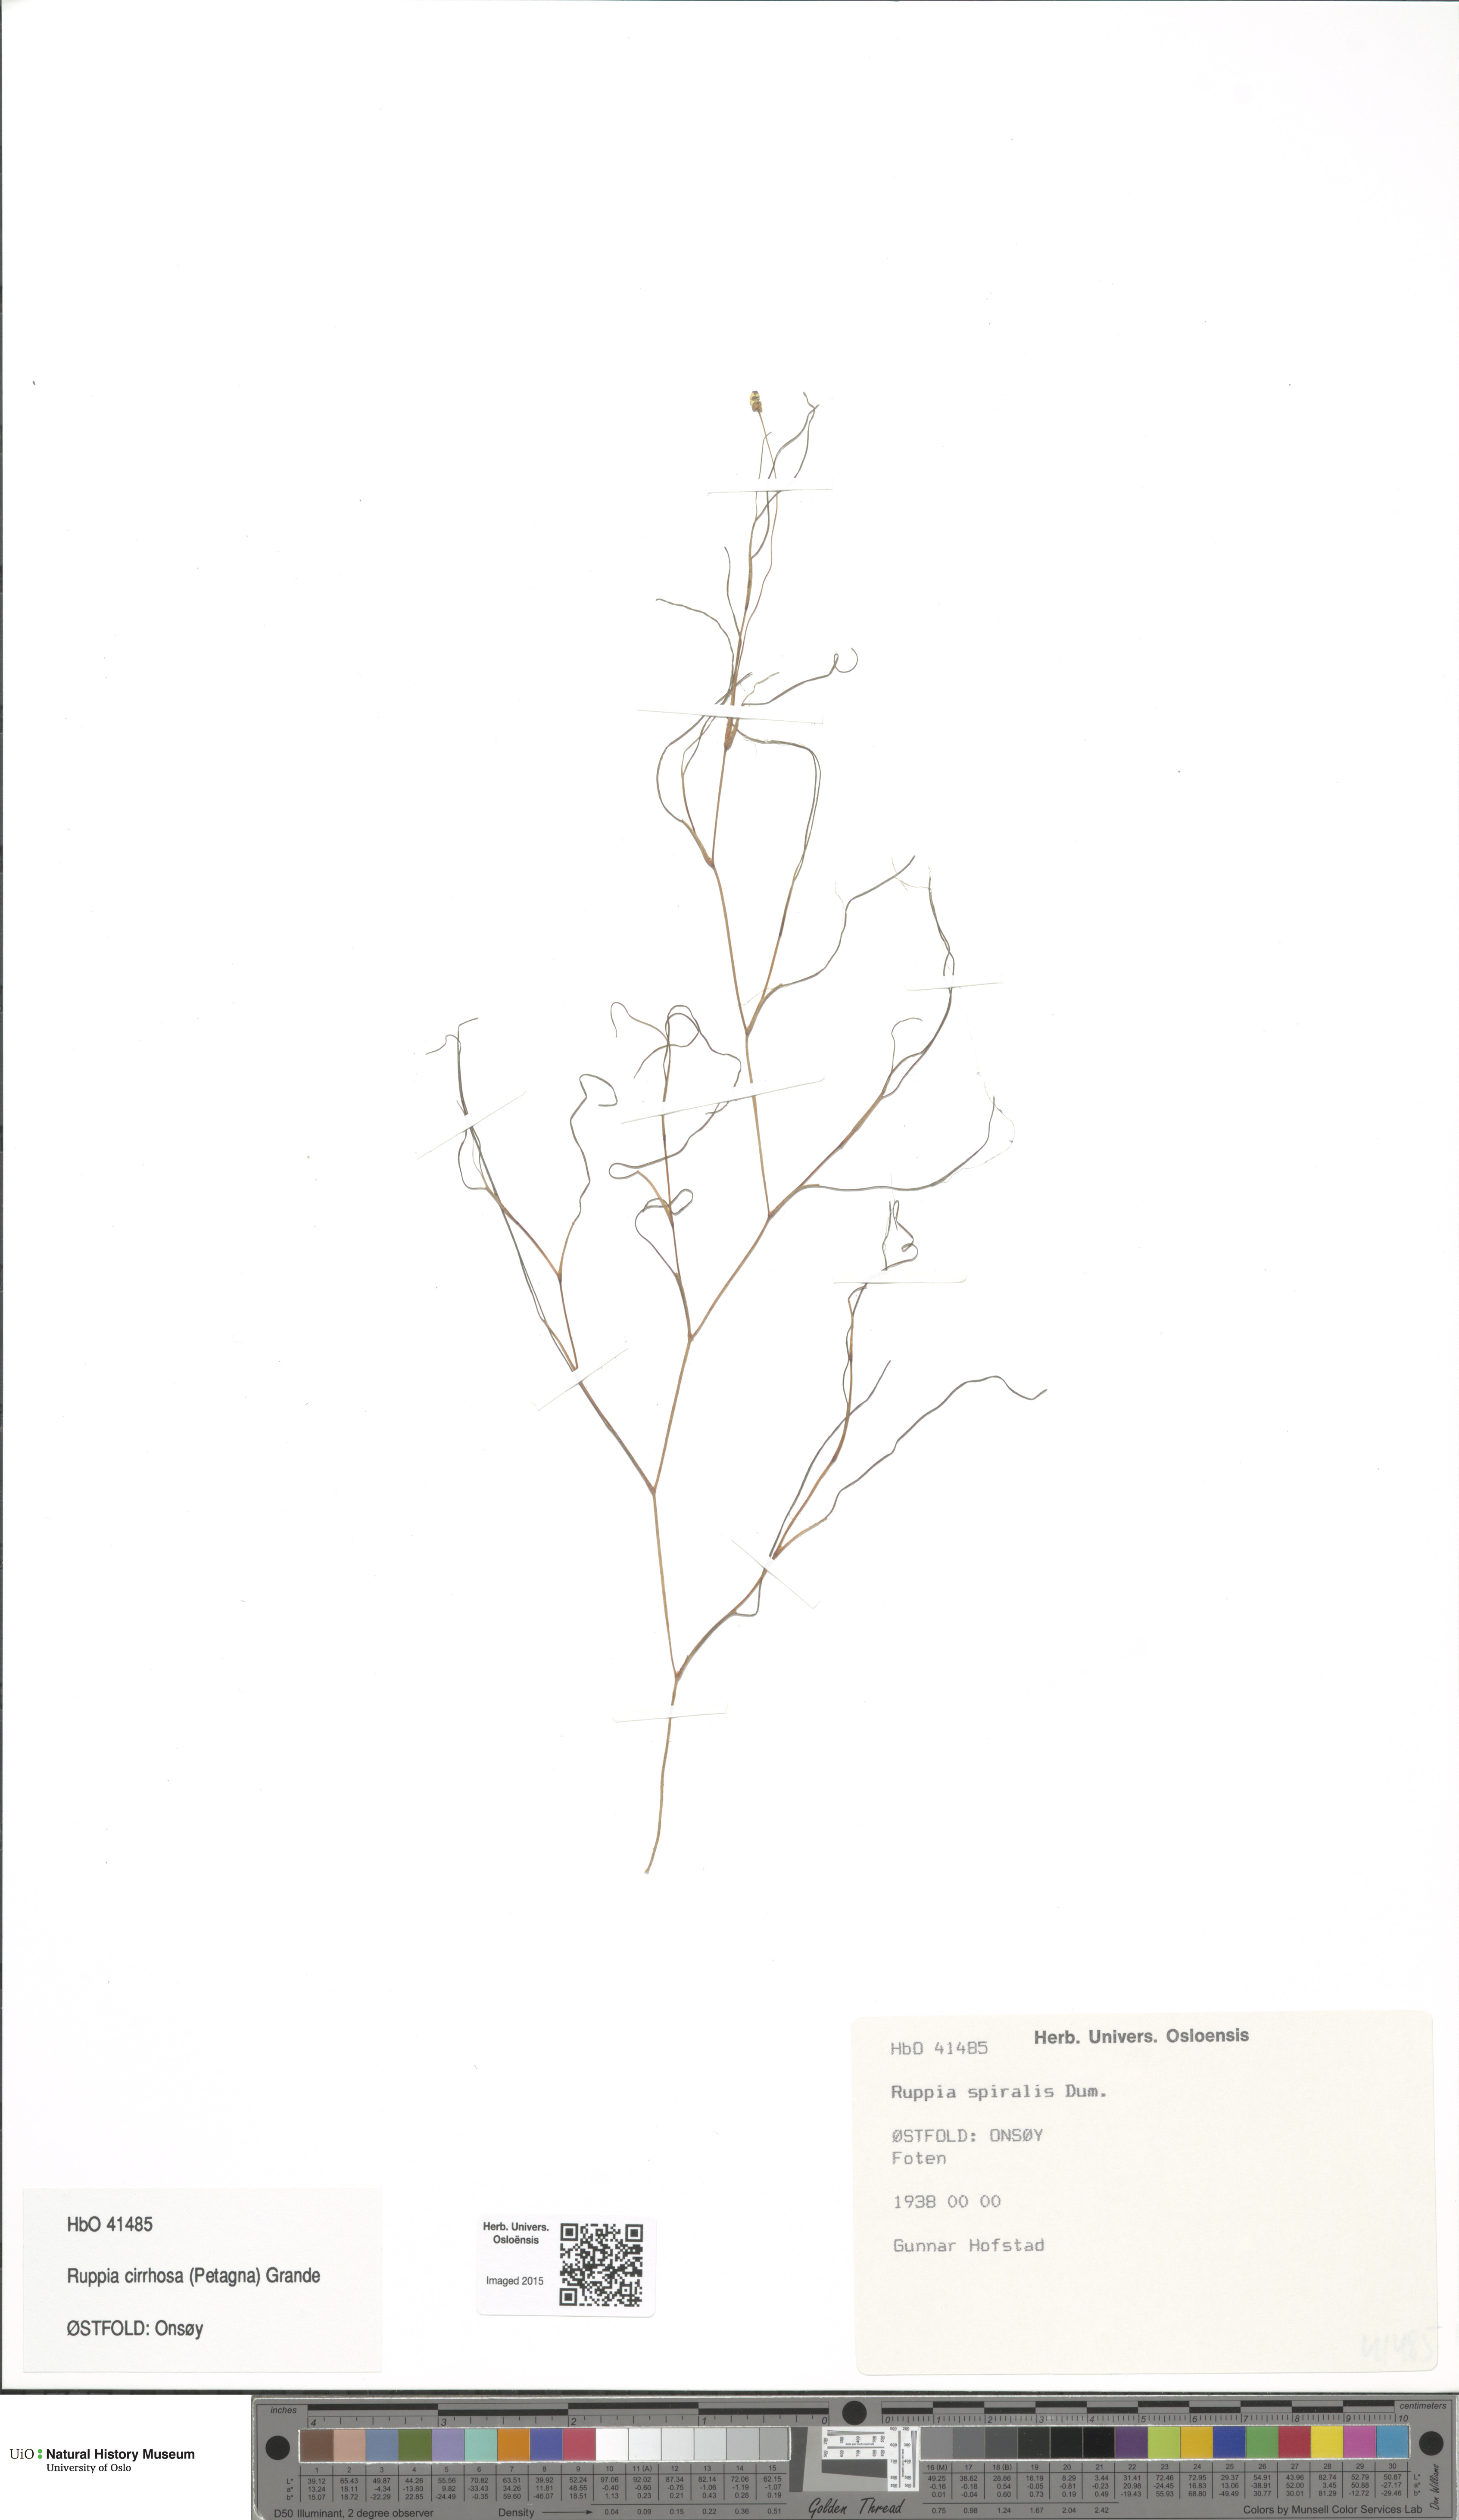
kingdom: Plantae
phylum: Tracheophyta
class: Liliopsida
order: Alismatales
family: Ruppiaceae
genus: Ruppia
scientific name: Ruppia cirrhosa
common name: Spiral tasselweed
